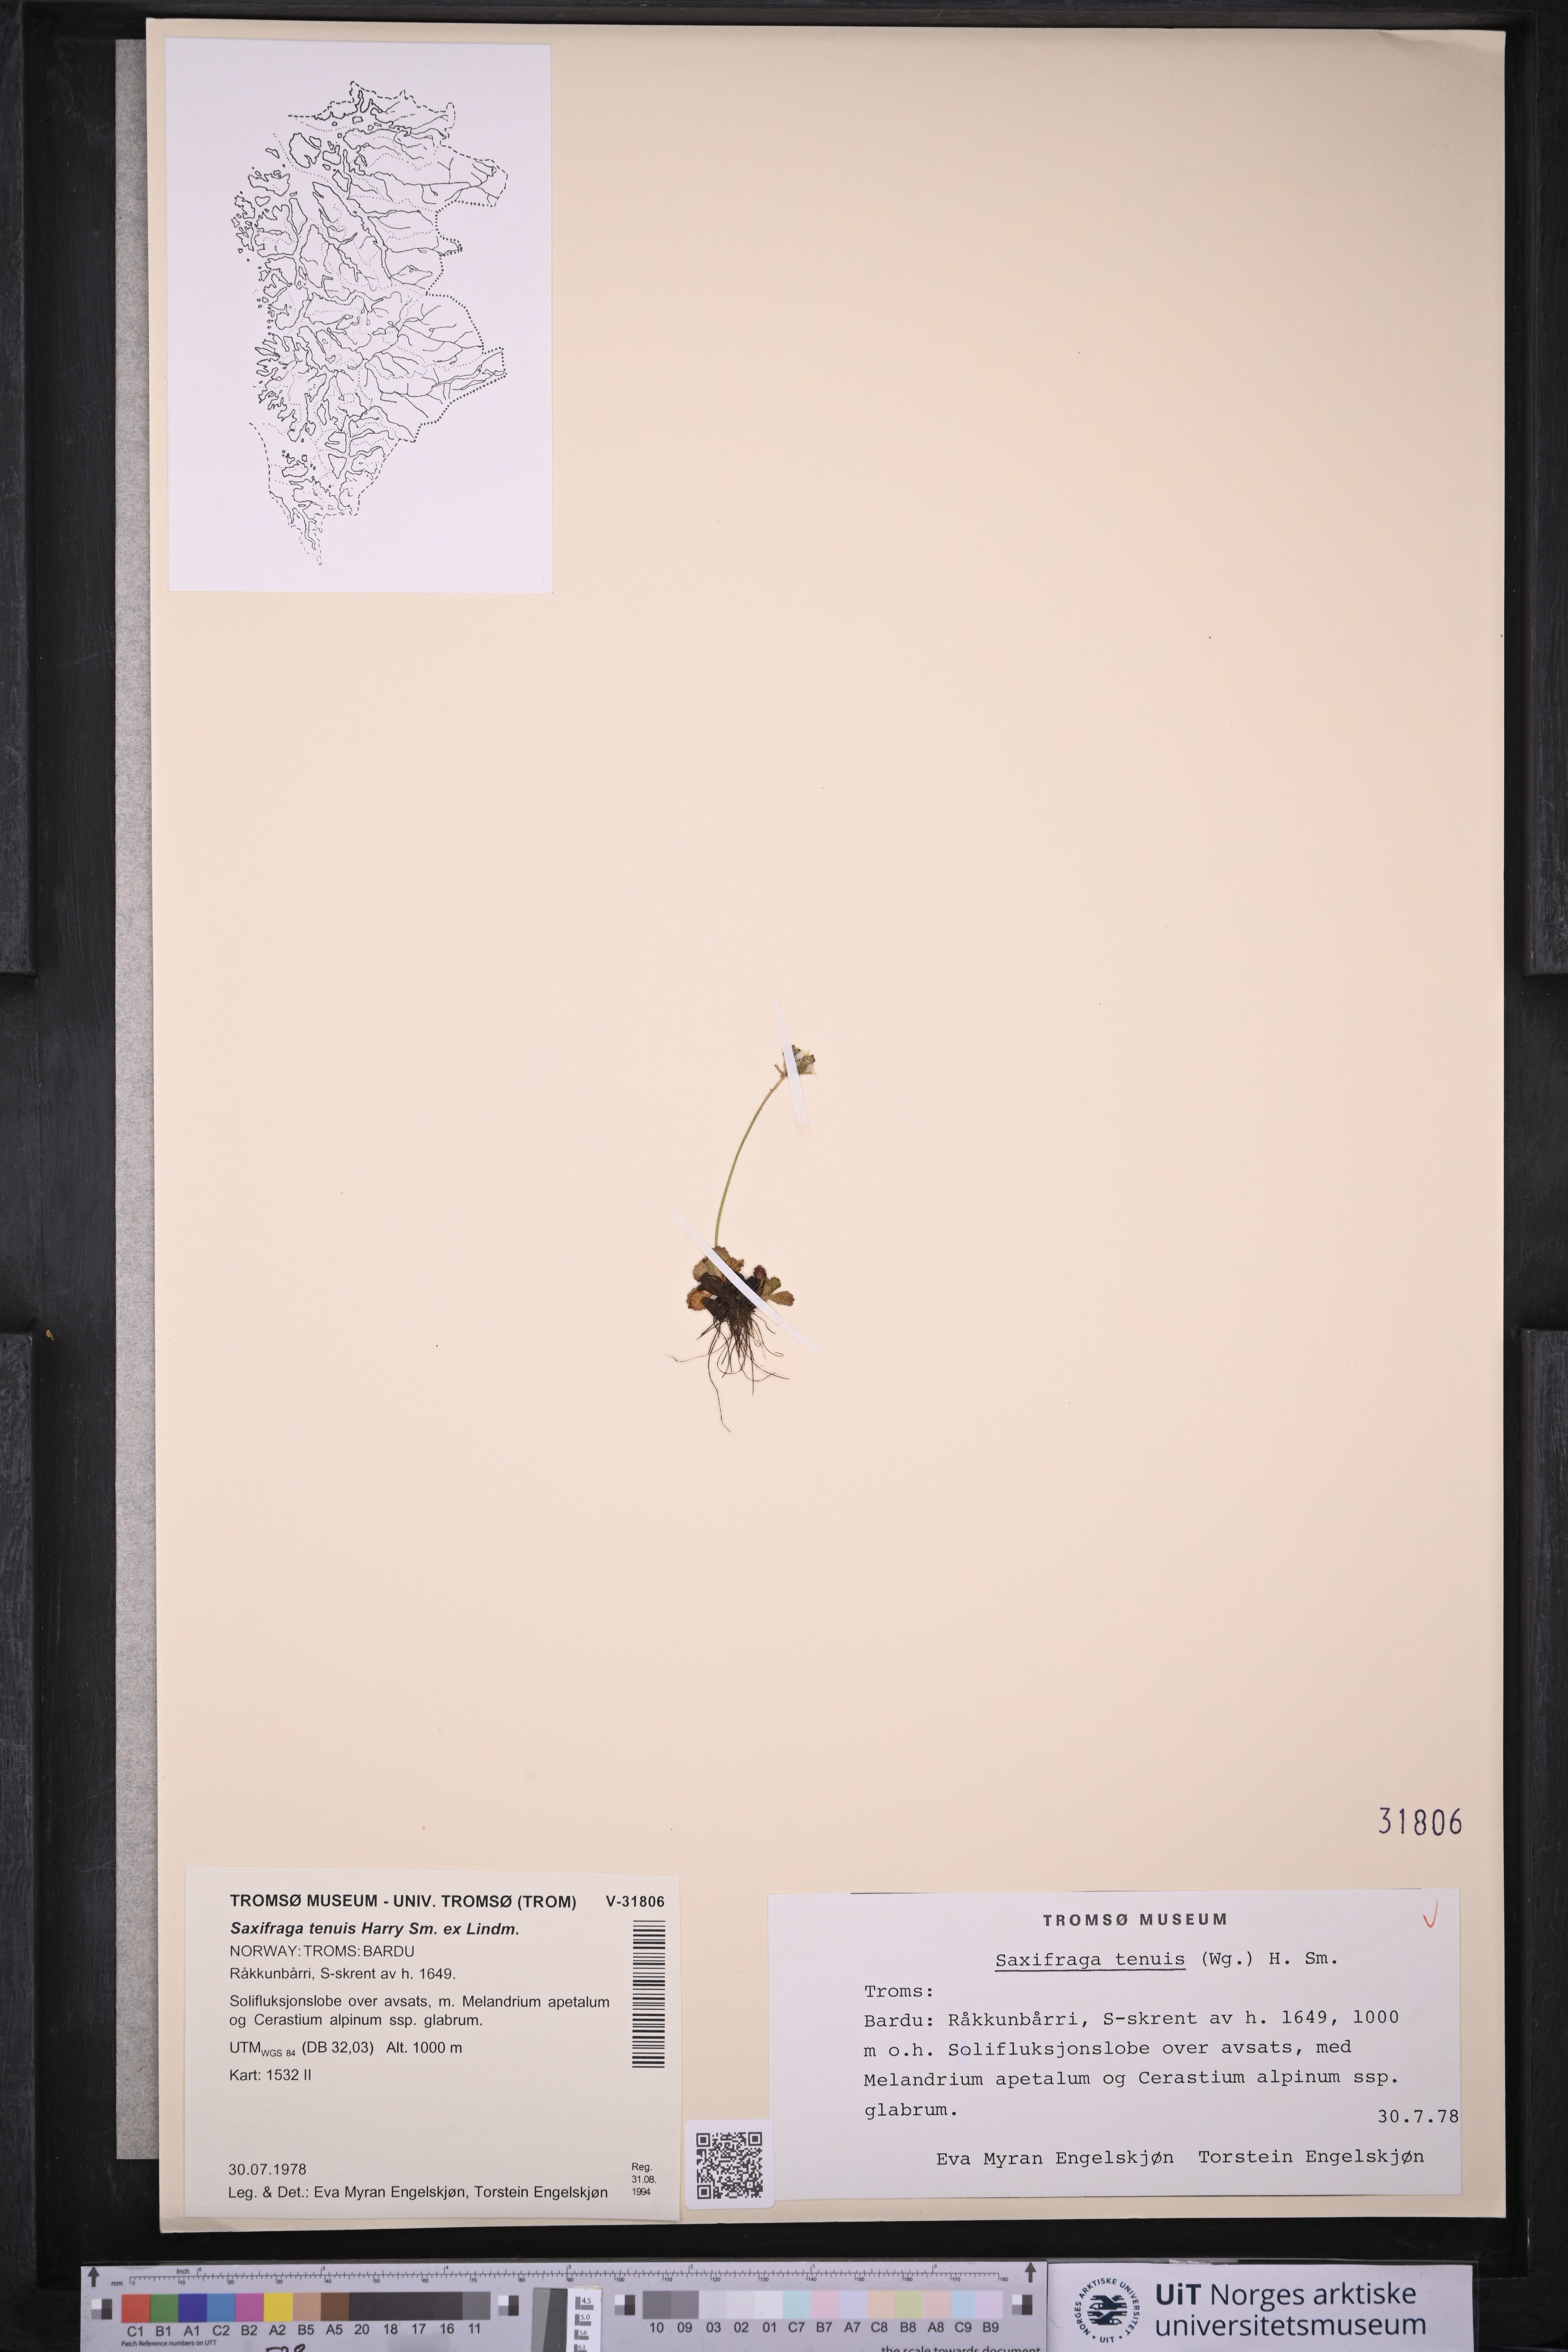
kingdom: Plantae
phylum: Tracheophyta
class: Magnoliopsida
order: Saxifragales
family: Saxifragaceae
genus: Micranthes
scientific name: Micranthes tenuis
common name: Ottertail pass saxifrage
